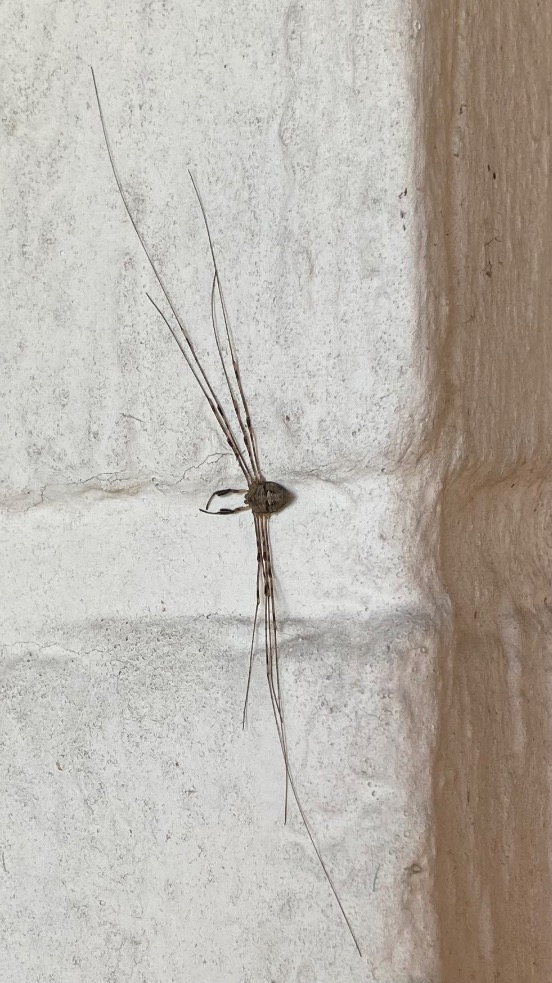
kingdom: Animalia
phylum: Arthropoda
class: Arachnida
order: Opiliones
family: Phalangiidae
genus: Dicranopalpus
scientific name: Dicranopalpus ramosus
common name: Gaffelmejer
